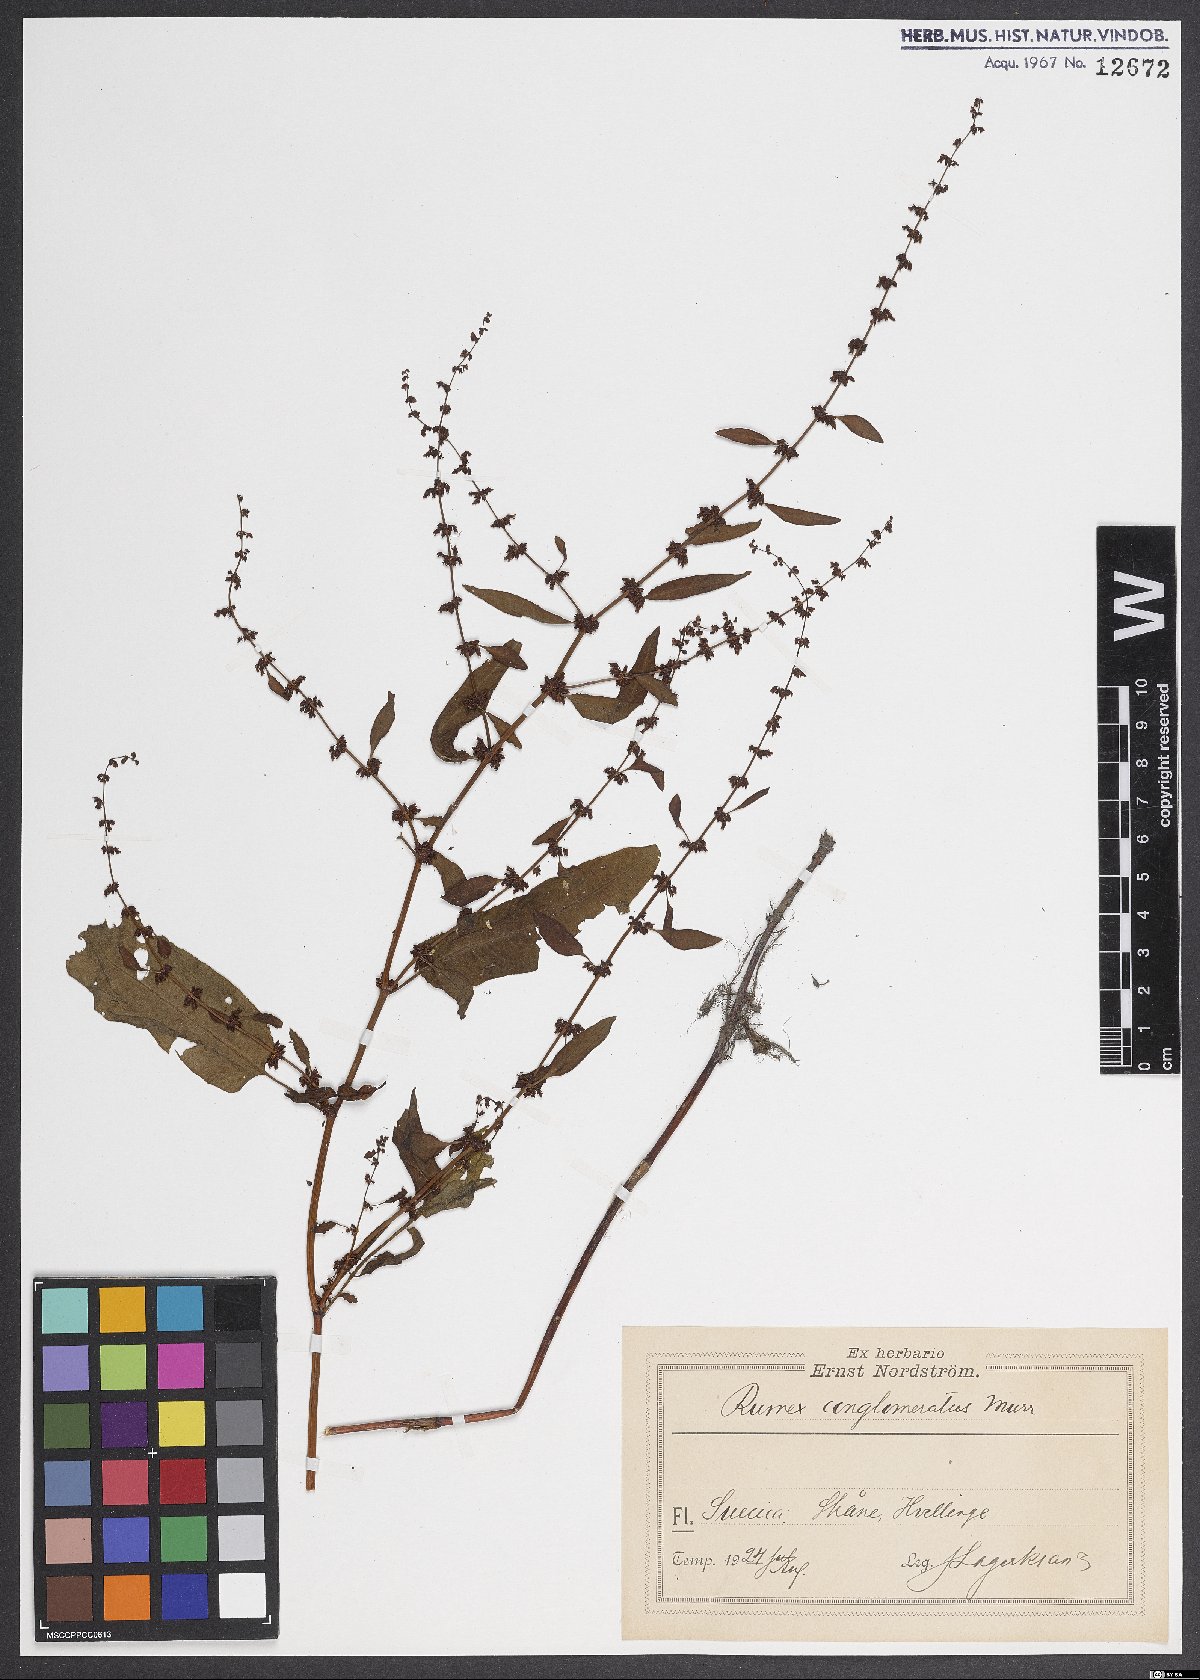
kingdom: Plantae
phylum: Tracheophyta
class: Magnoliopsida
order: Caryophyllales
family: Polygonaceae
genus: Rumex
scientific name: Rumex conglomeratus
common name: Clustered dock
